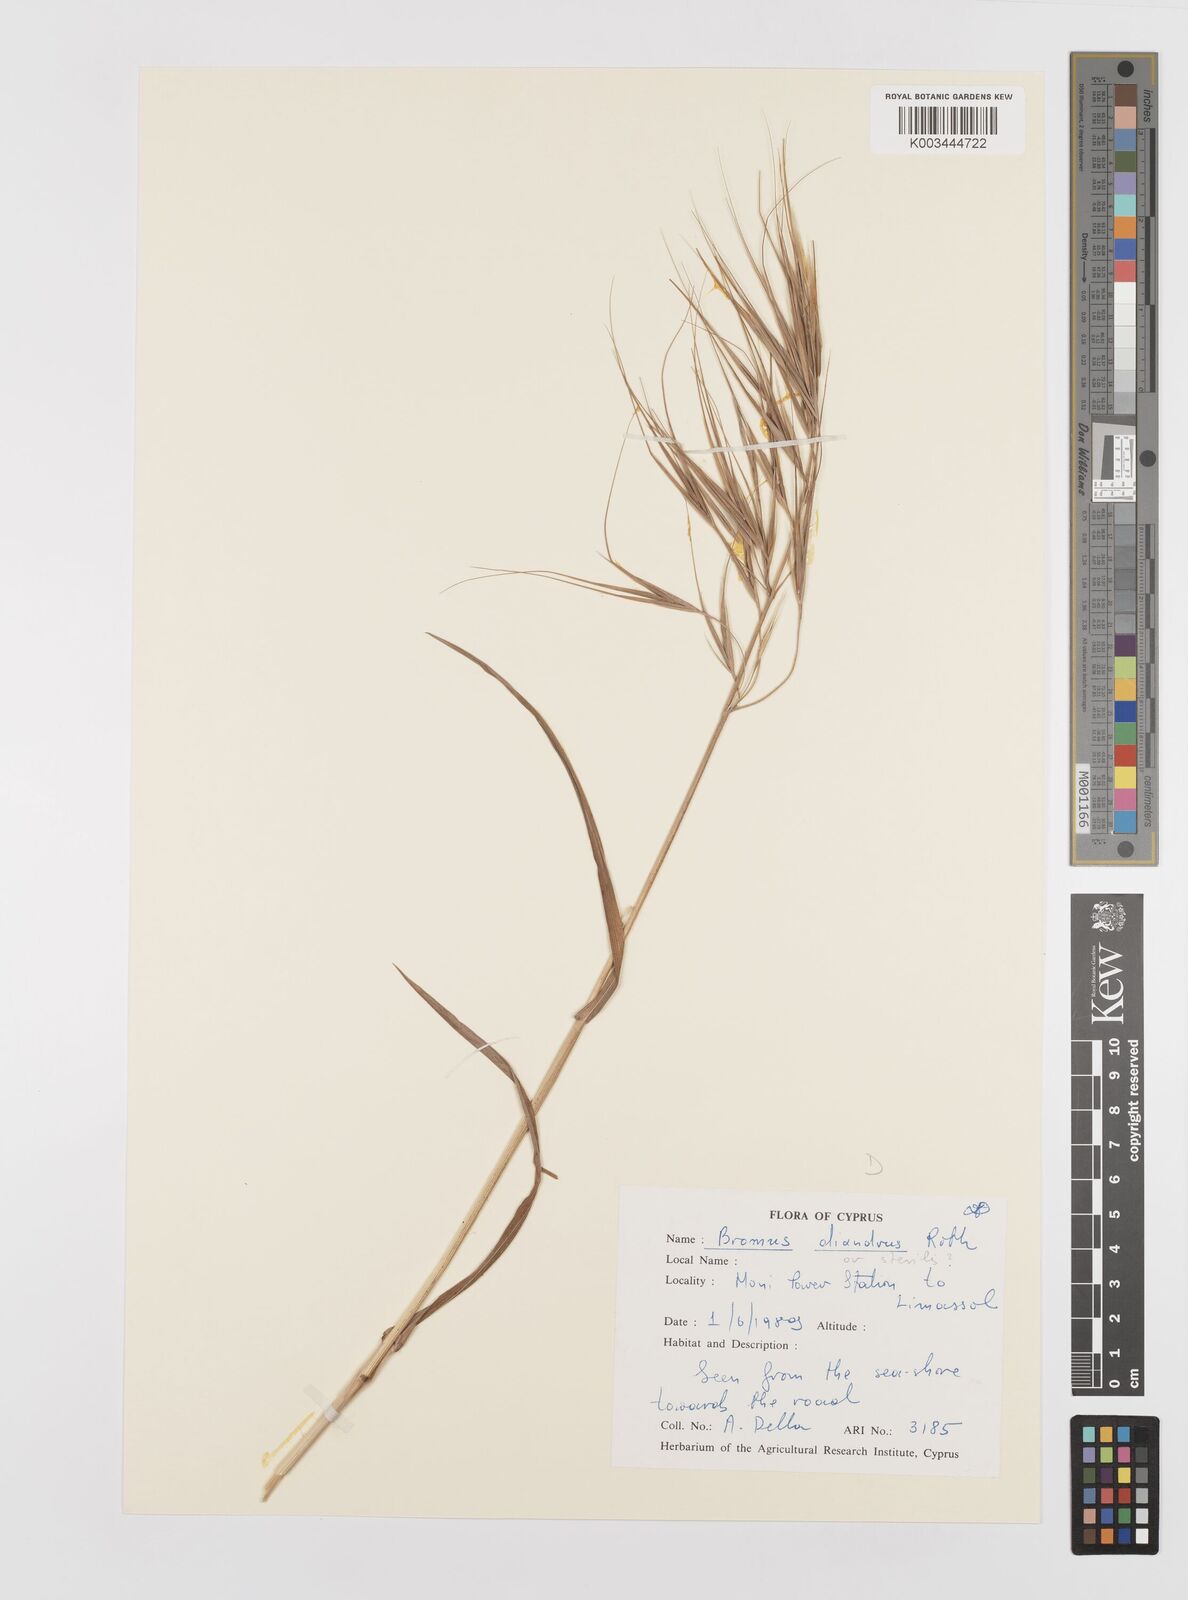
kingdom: Plantae
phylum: Tracheophyta
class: Liliopsida
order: Poales
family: Poaceae
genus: Bromus
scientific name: Bromus diandrus
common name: Ripgut brome
